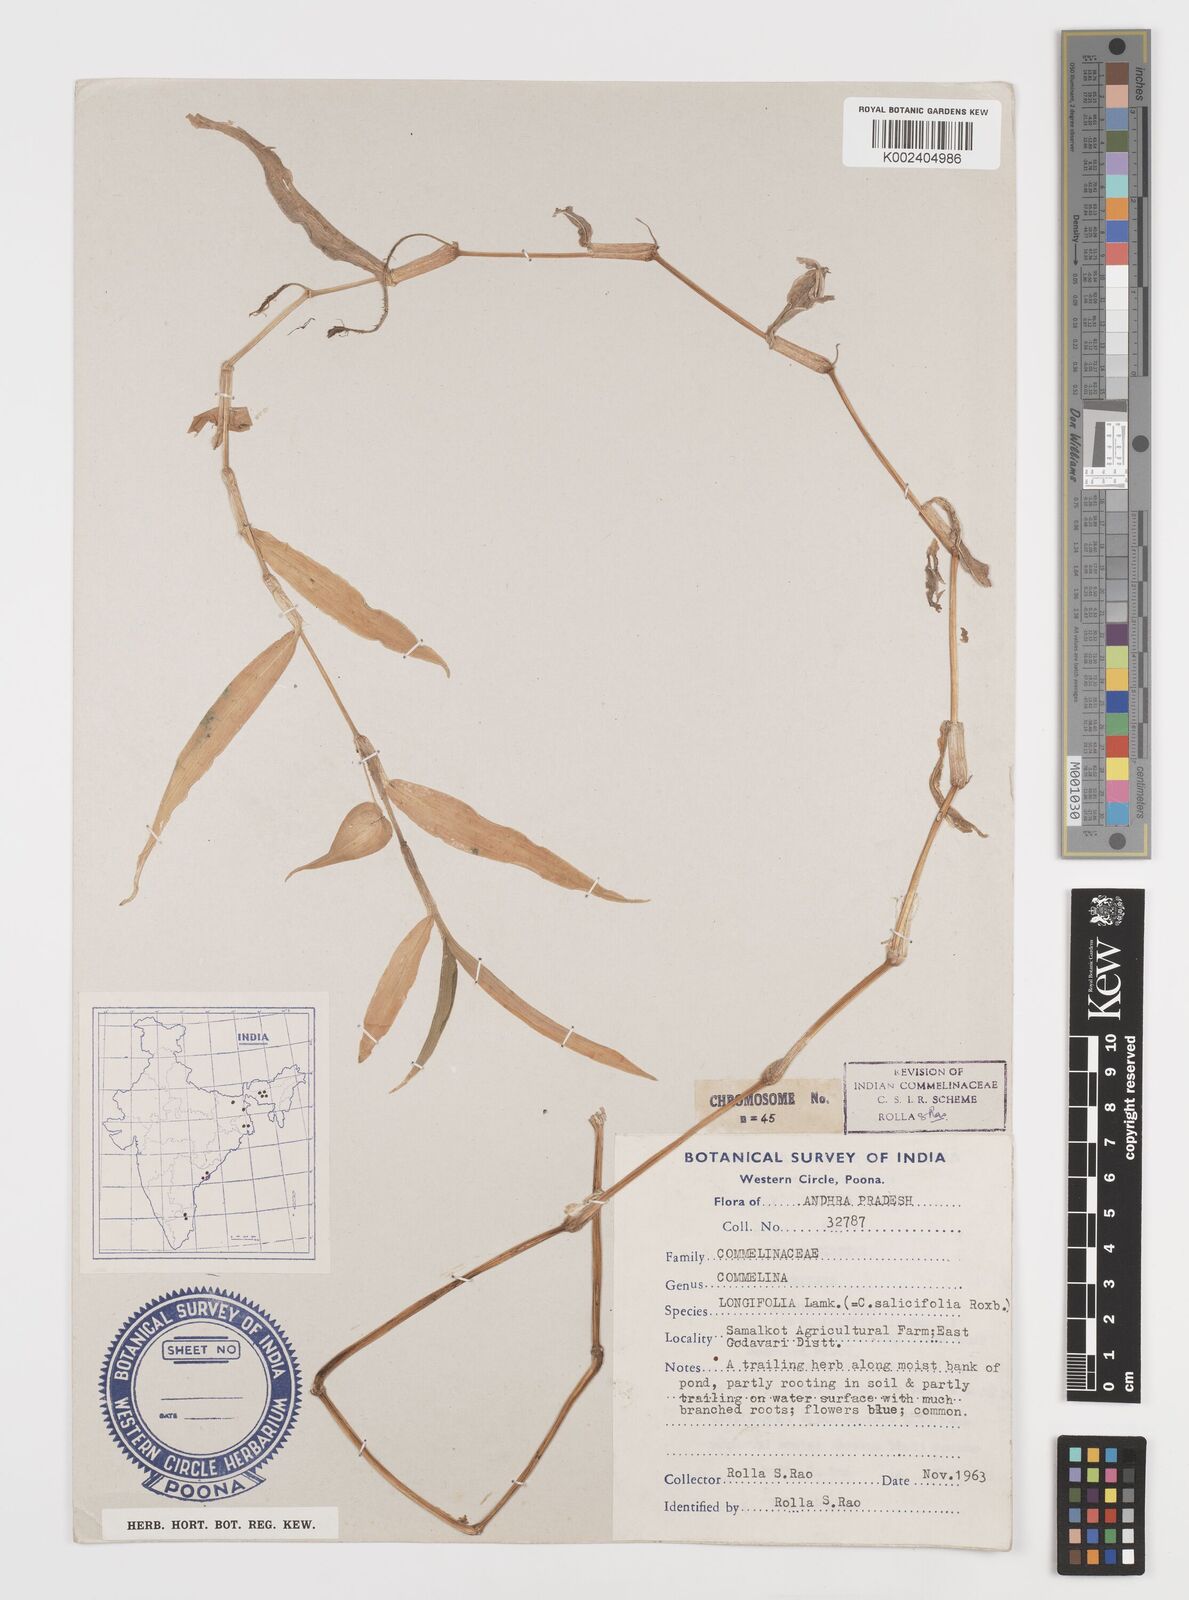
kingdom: Plantae
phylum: Tracheophyta
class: Liliopsida
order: Commelinales
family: Commelinaceae
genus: Commelina
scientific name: Commelina undulata
